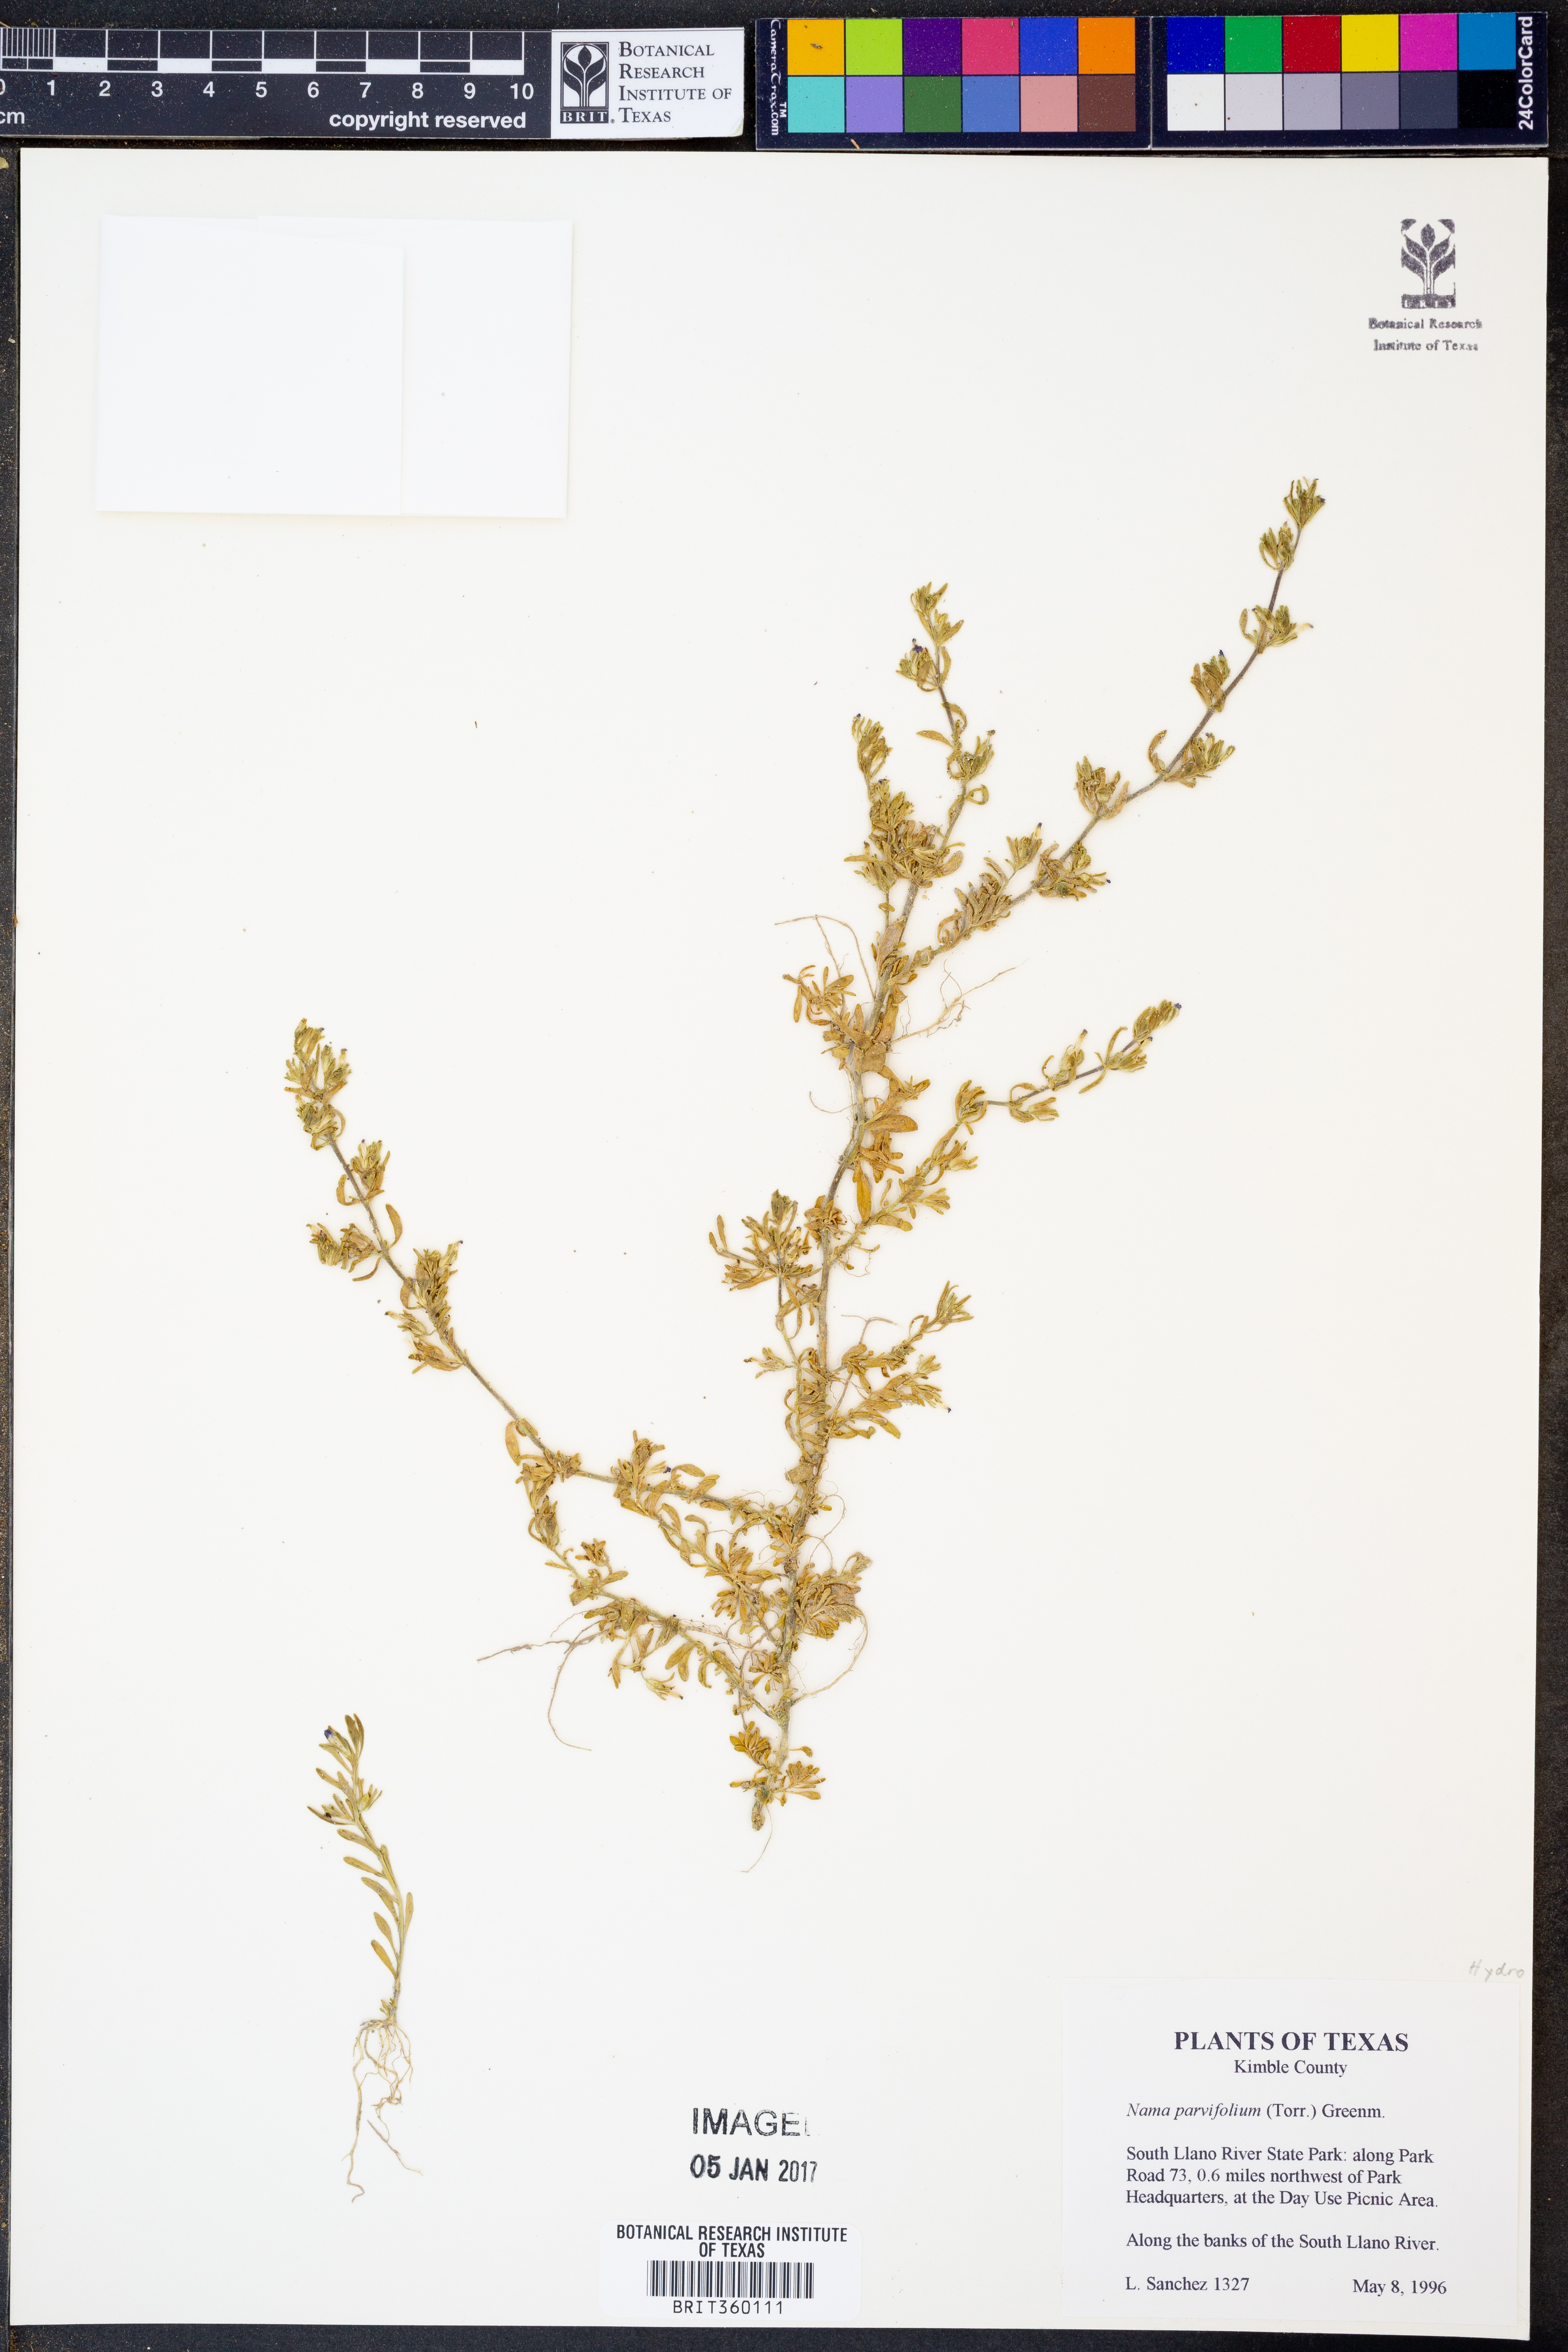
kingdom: Plantae
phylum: Tracheophyta
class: Magnoliopsida
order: Boraginales
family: Namaceae
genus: Nama
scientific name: Nama parvifolia
